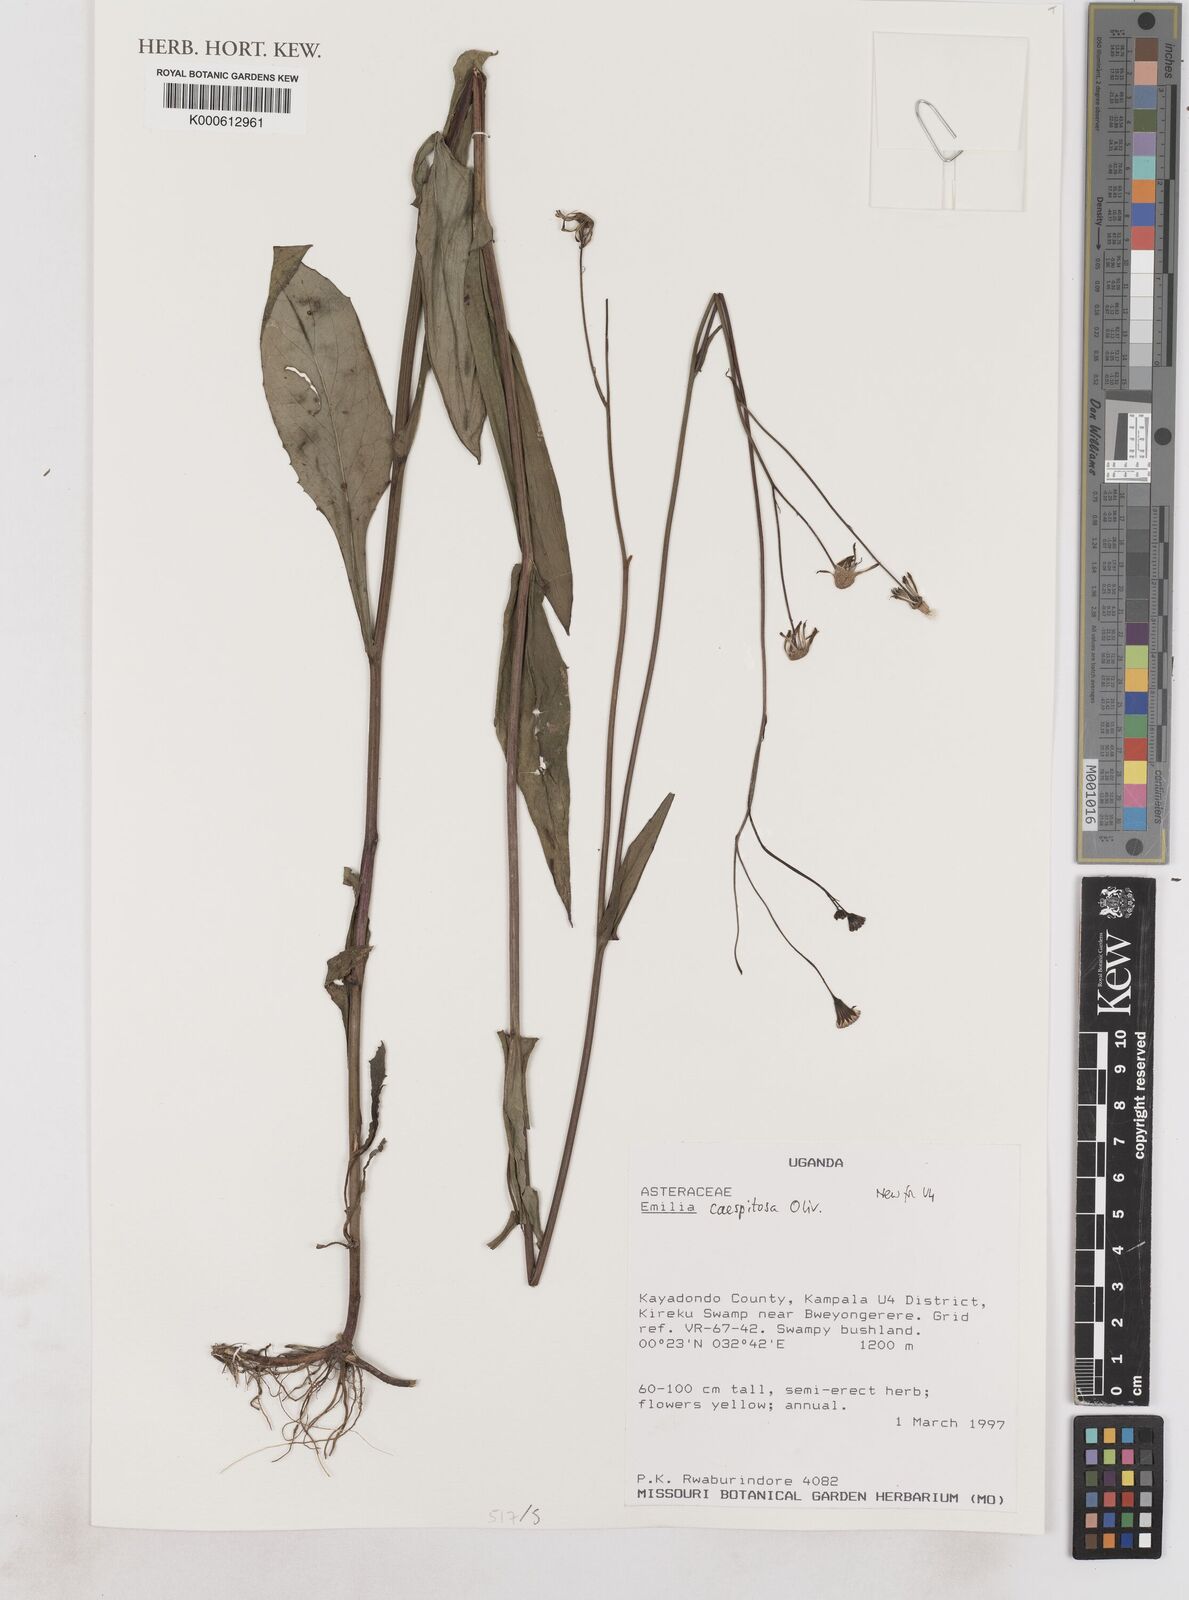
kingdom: Plantae
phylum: Tracheophyta
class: Magnoliopsida
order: Asterales
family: Asteraceae
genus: Emilia
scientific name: Emilia coccinea
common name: Scarlet tasselflower
